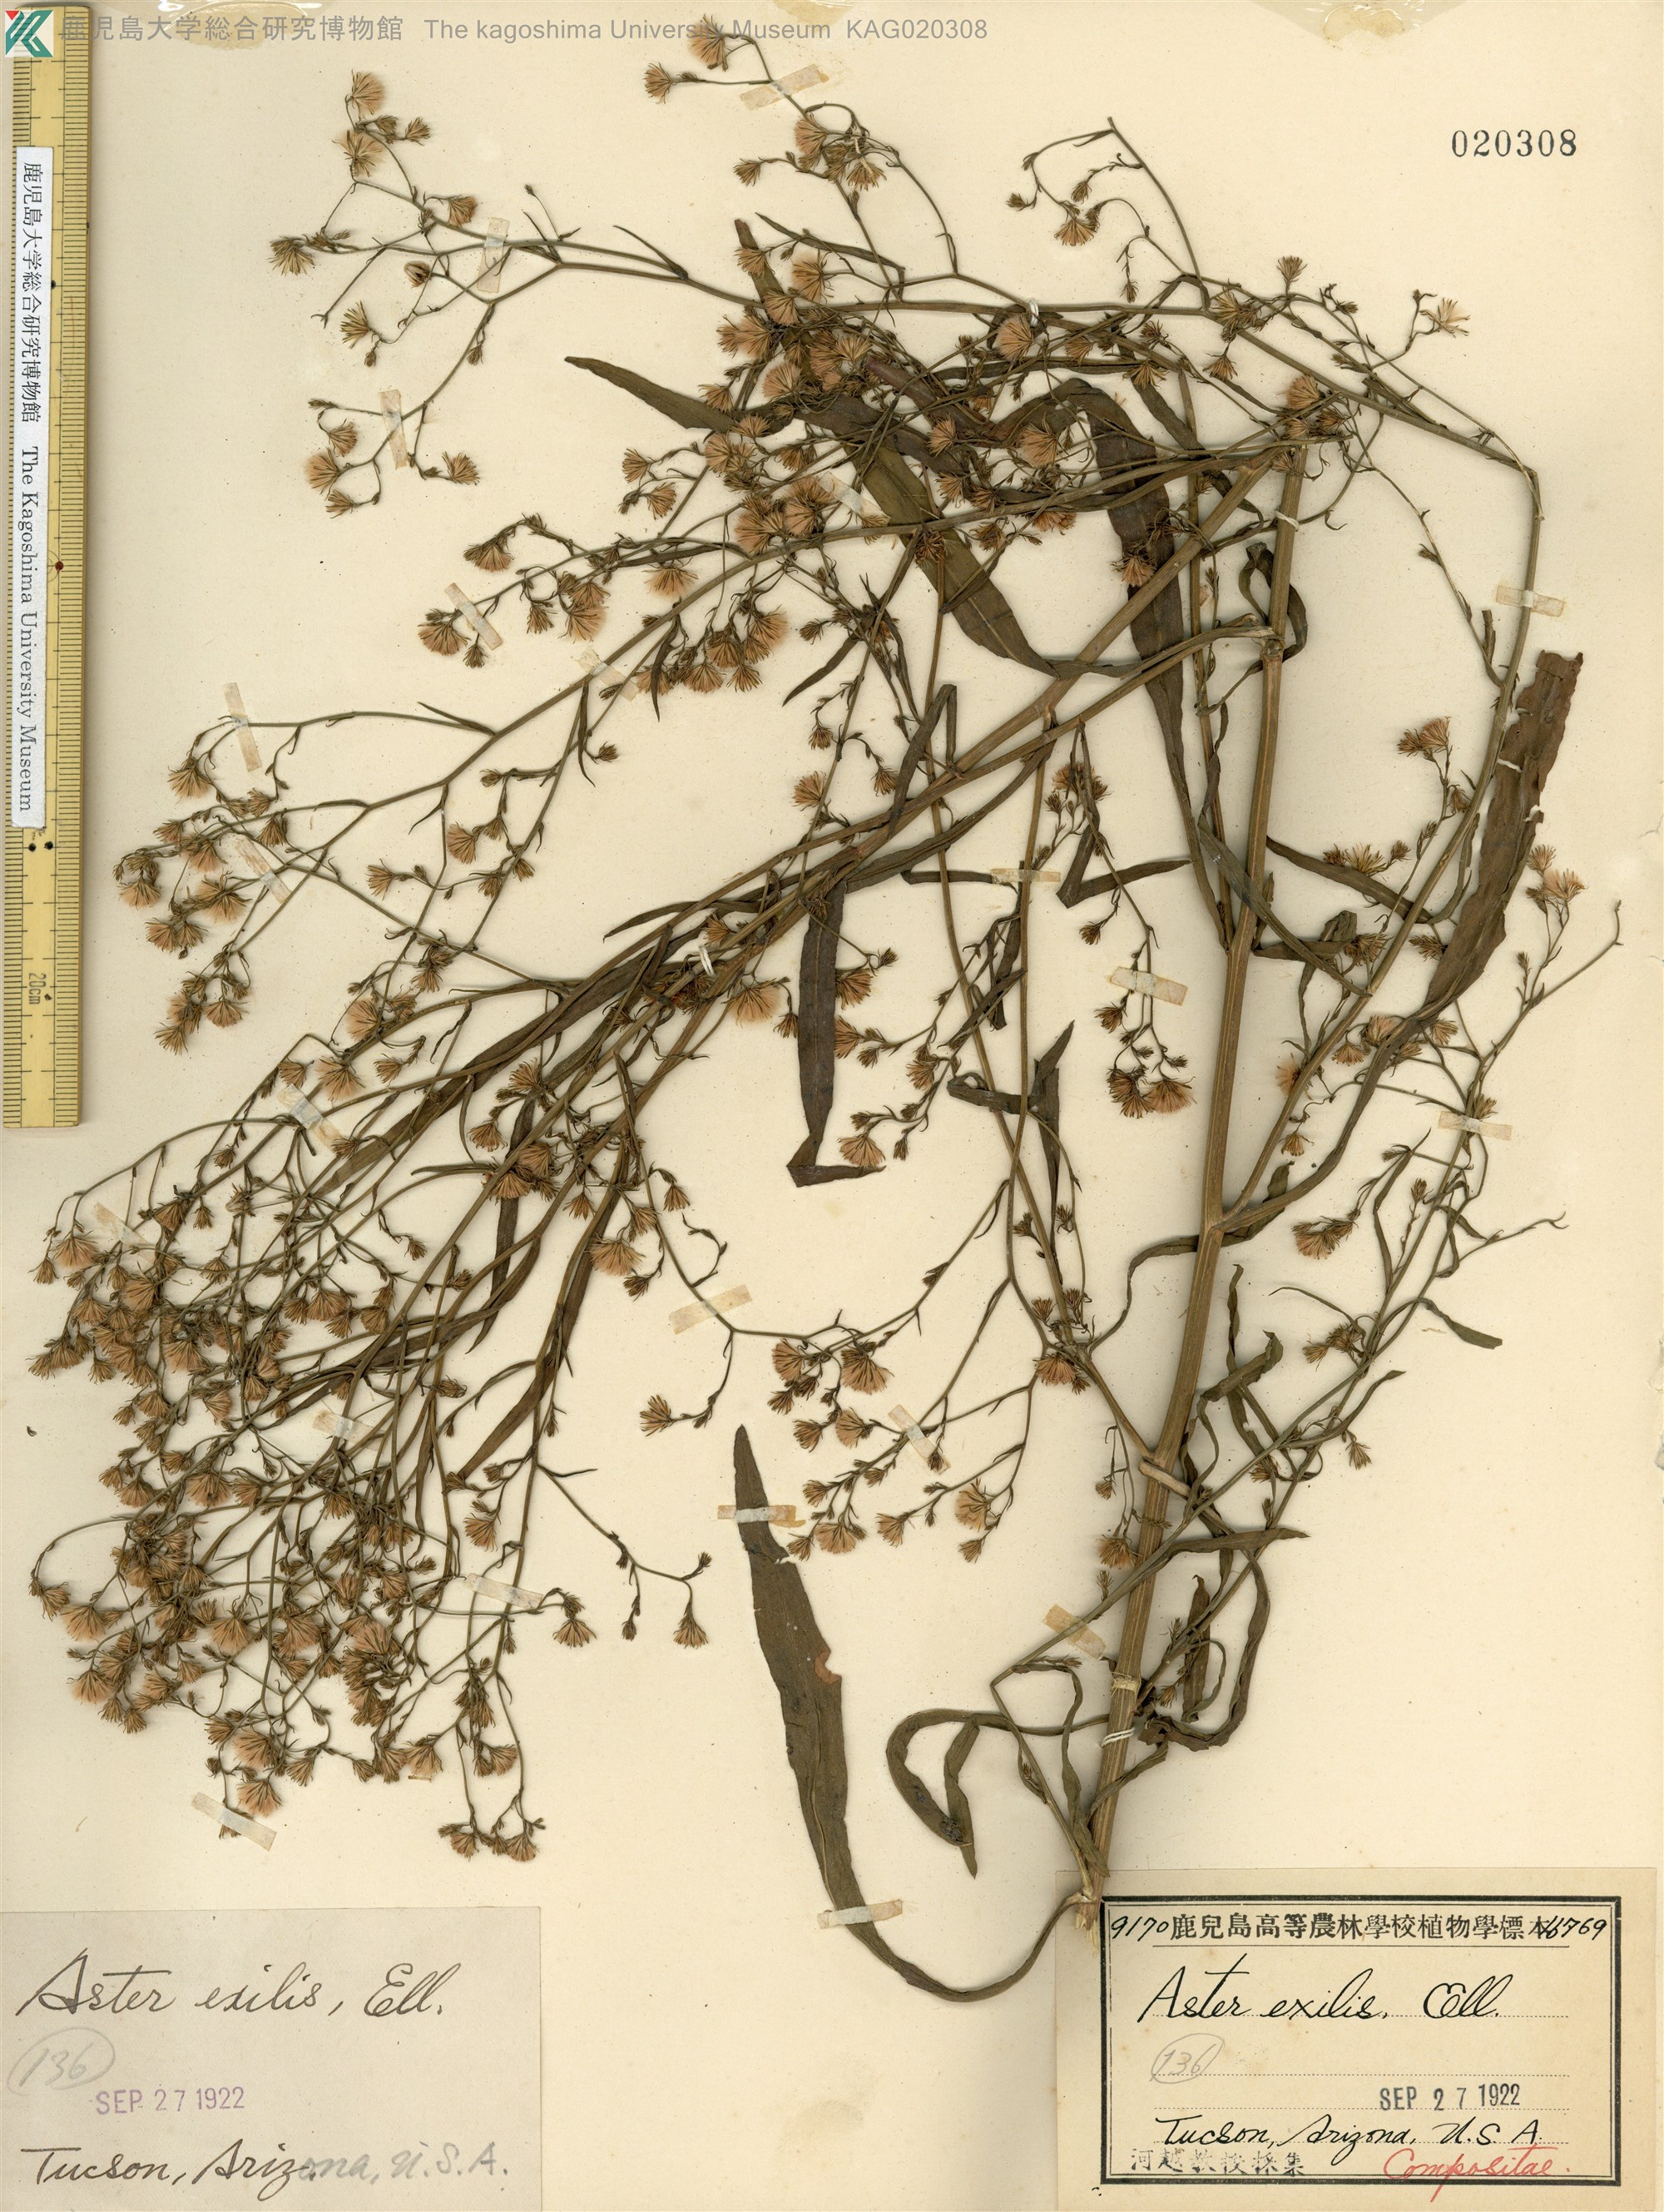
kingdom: Plantae
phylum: Tracheophyta
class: Magnoliopsida
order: Asterales
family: Asteraceae
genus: Symphyotrichum
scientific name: Symphyotrichum expansum
